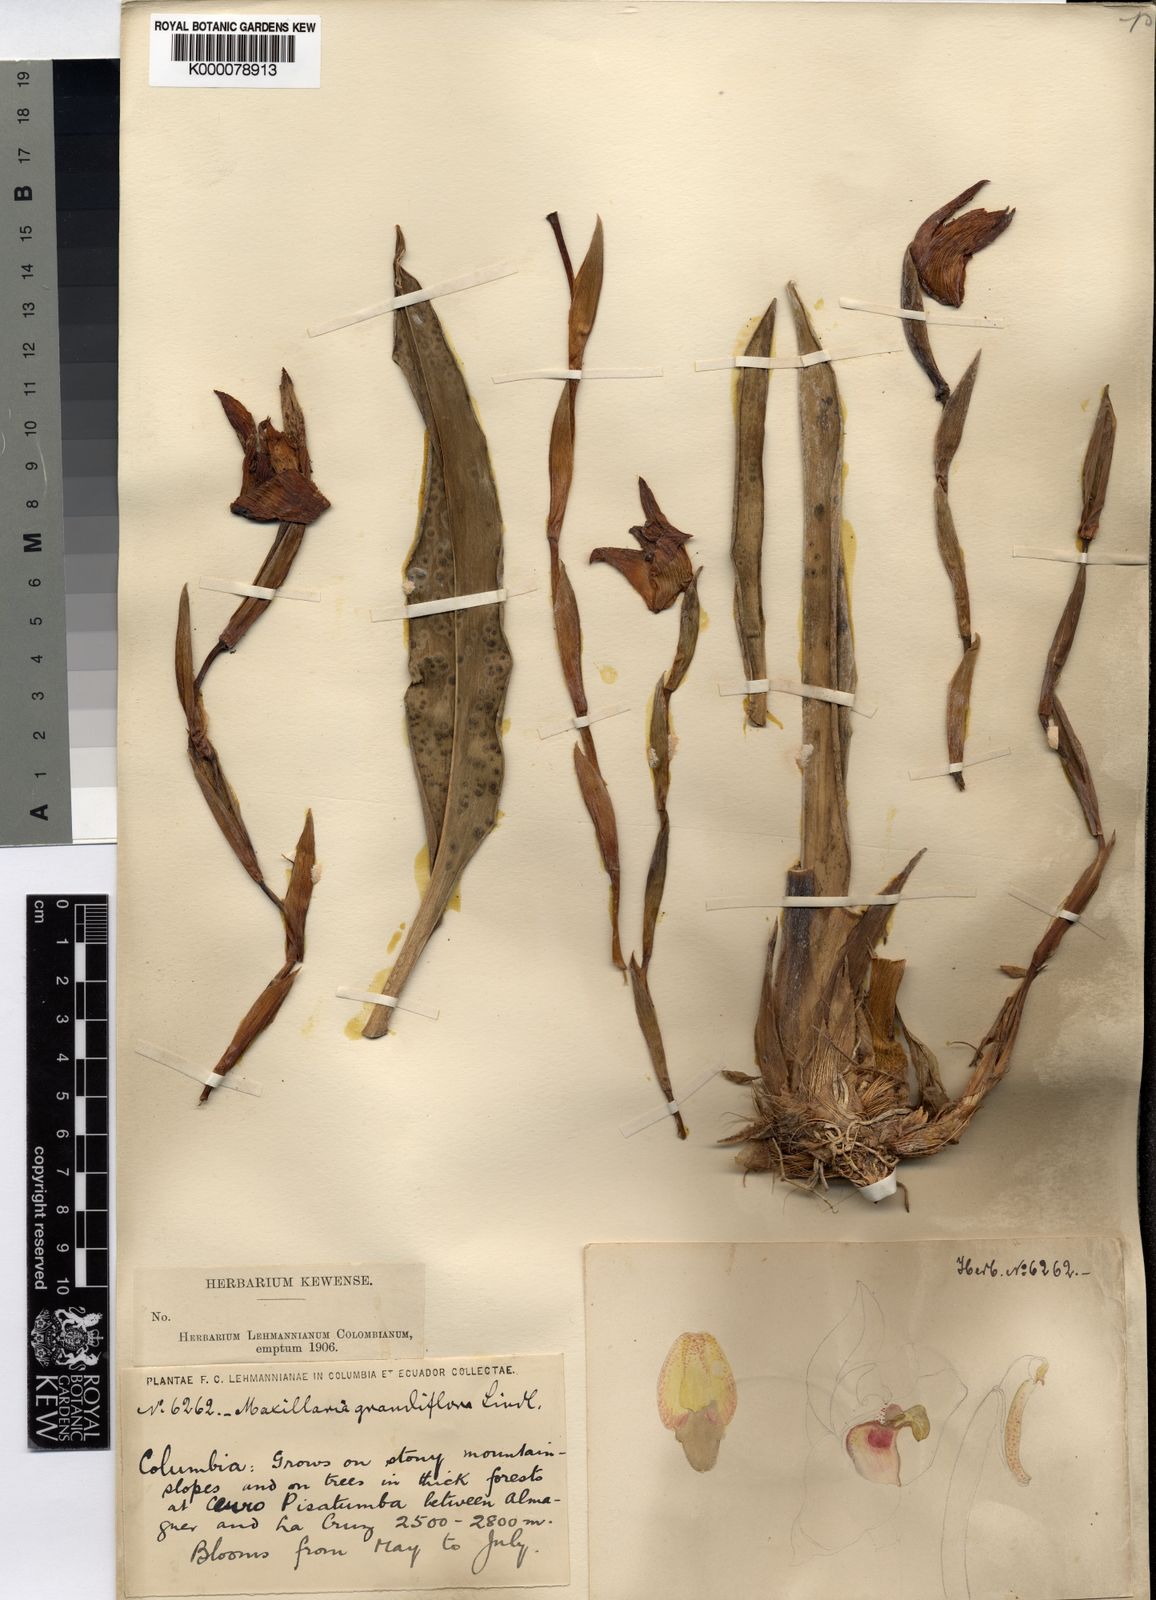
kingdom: Plantae
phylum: Tracheophyta
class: Liliopsida
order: Asparagales
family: Orchidaceae
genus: Maxillaria
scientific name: Maxillaria grandiflora
